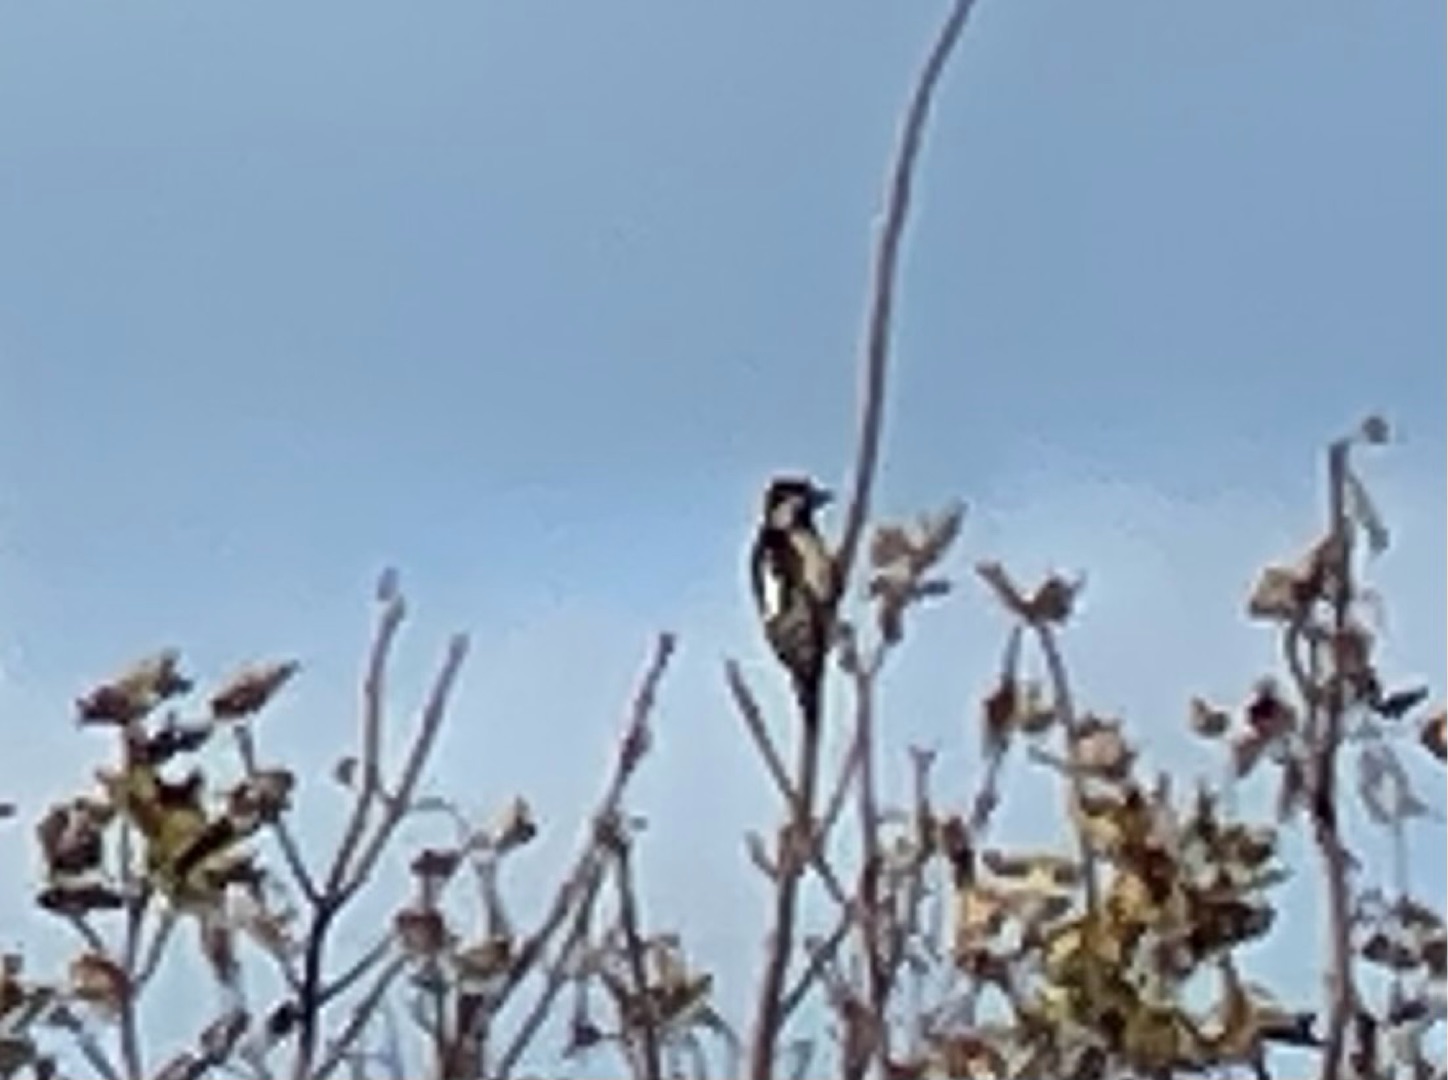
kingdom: Animalia
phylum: Chordata
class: Aves
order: Piciformes
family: Picidae
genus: Dendrocopos
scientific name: Dendrocopos major
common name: Stor flagspætte
